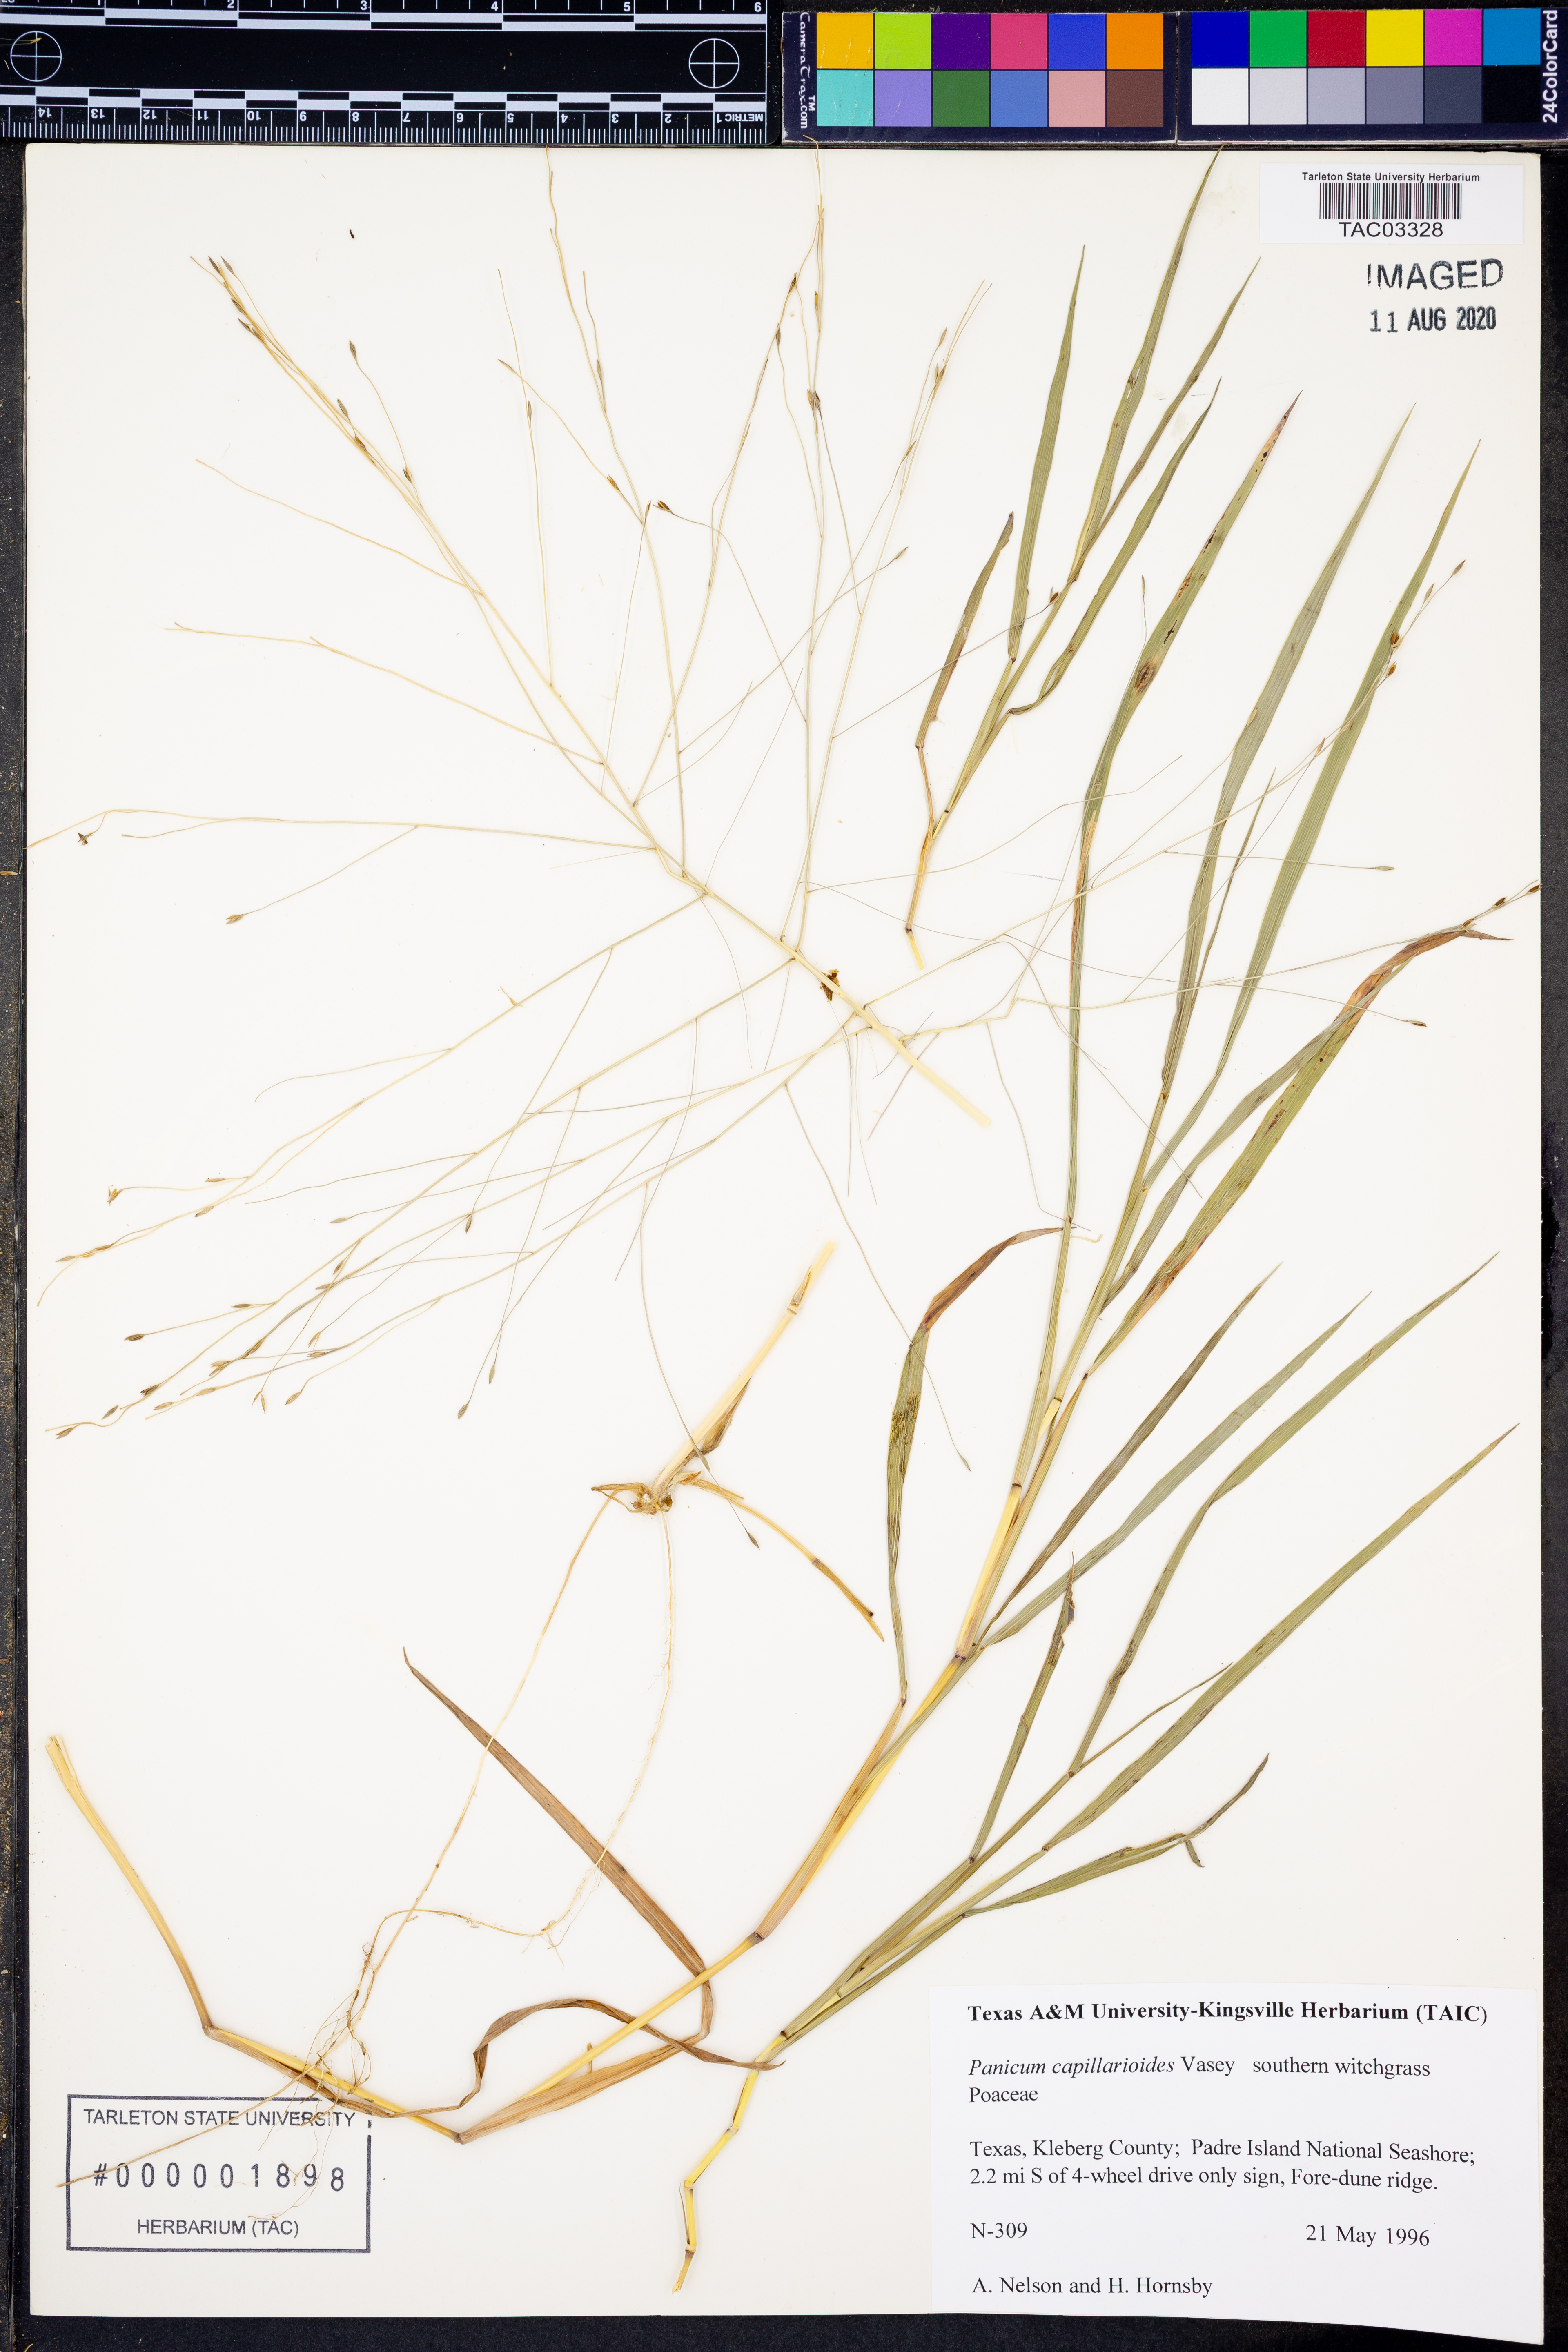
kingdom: Plantae
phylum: Tracheophyta
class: Liliopsida
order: Poales
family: Poaceae
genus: Panicum
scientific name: Panicum capillarioides
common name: Long-beak witchgrass
